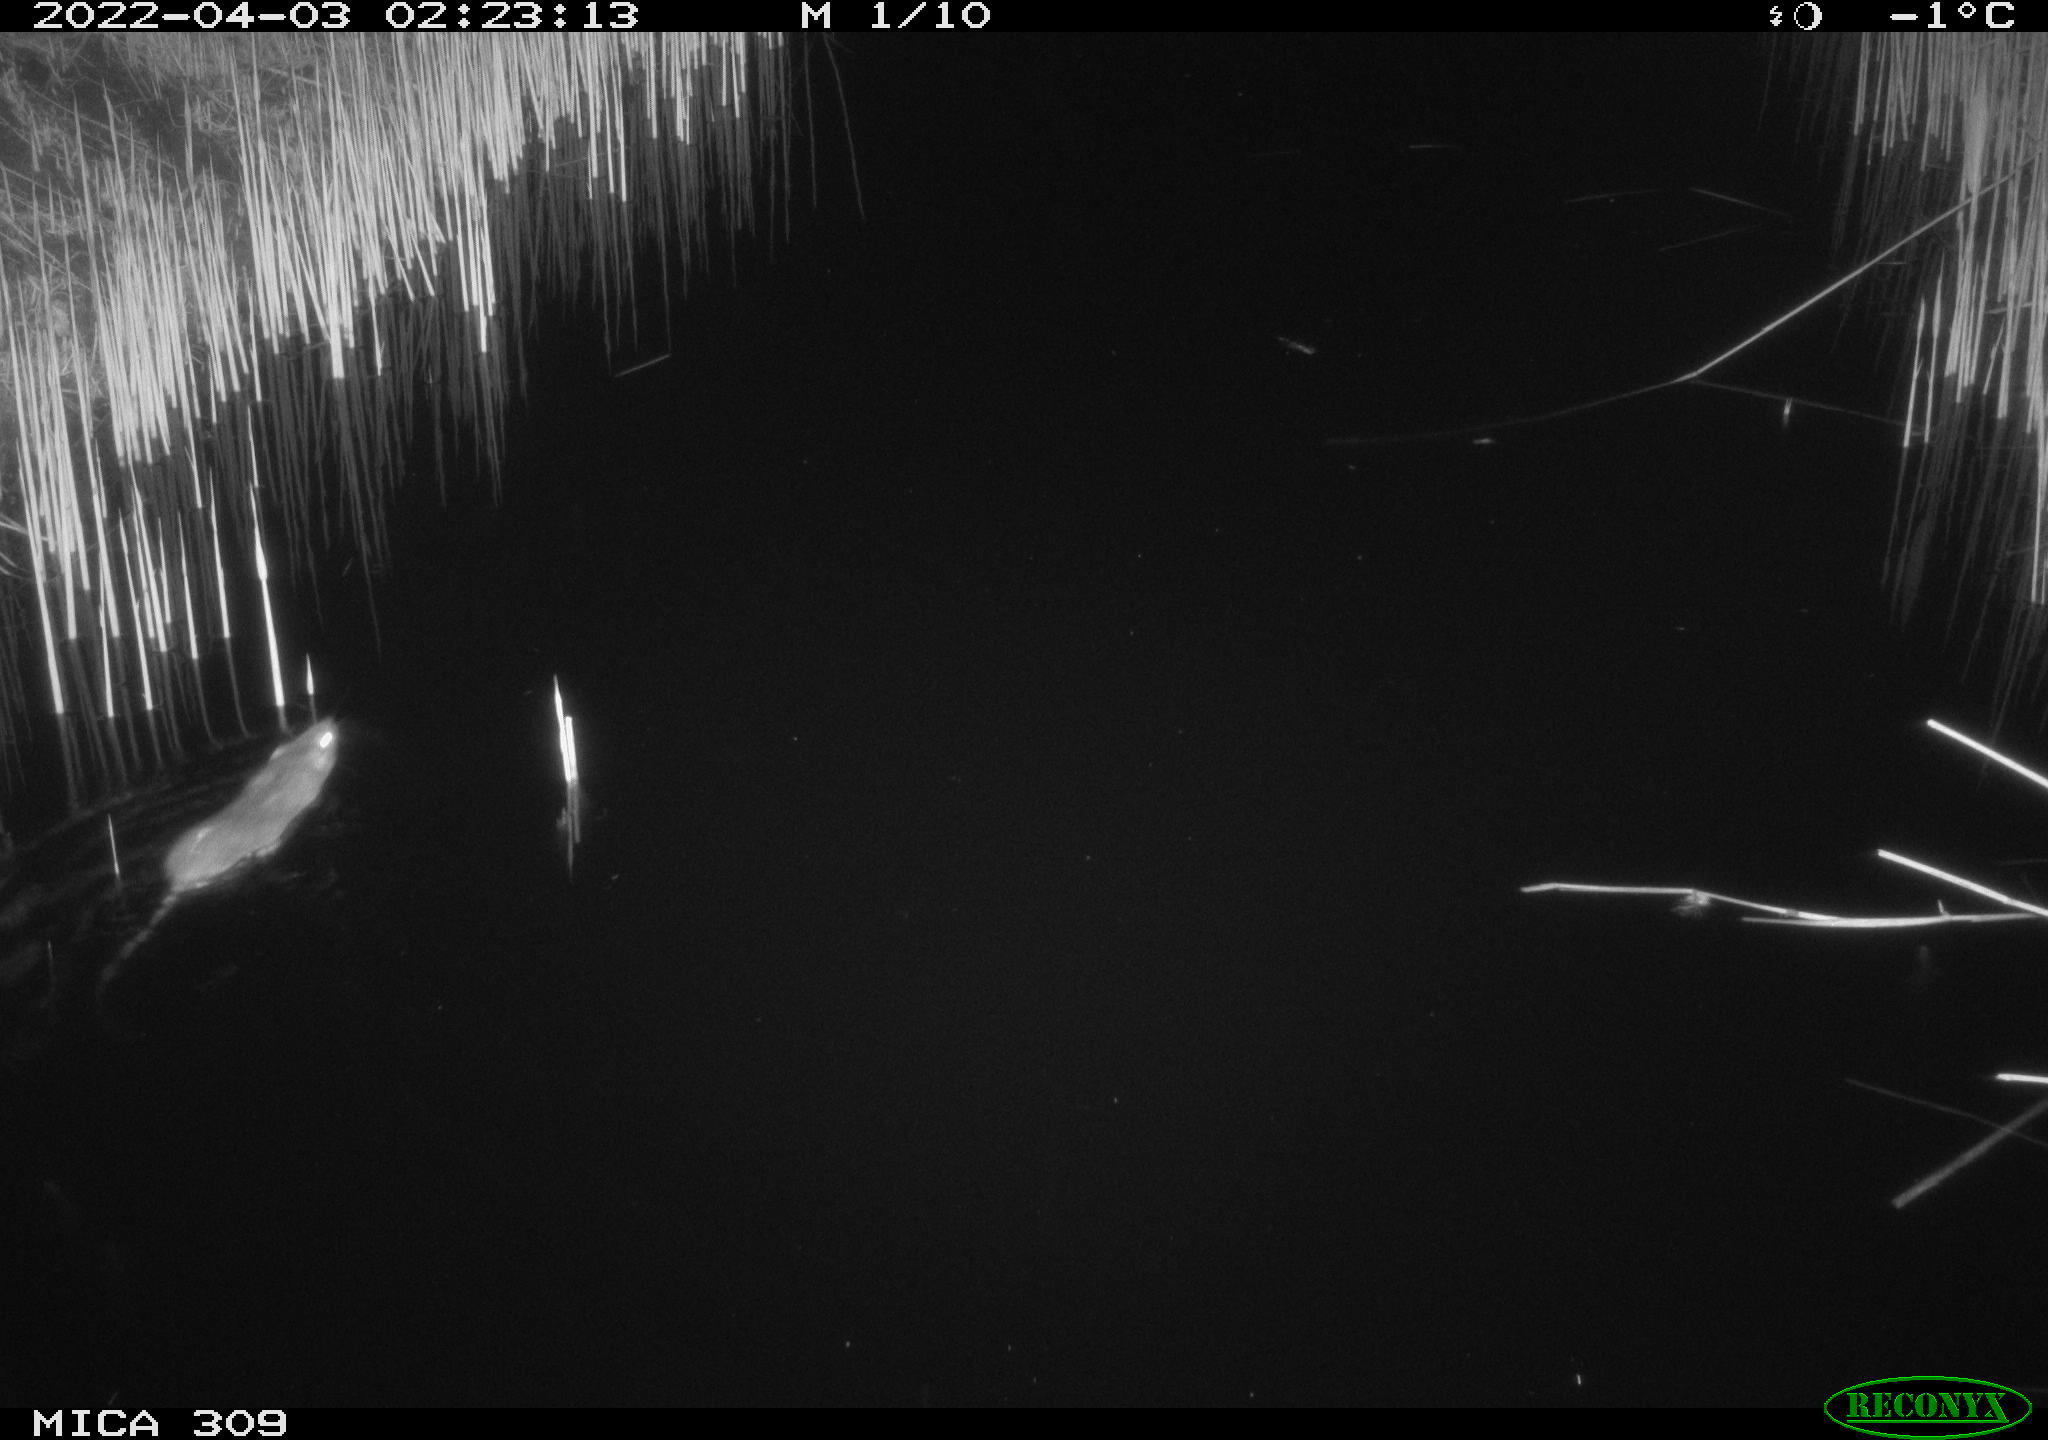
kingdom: Animalia
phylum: Chordata
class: Mammalia
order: Rodentia
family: Muridae
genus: Rattus
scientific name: Rattus norvegicus
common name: Brown rat
